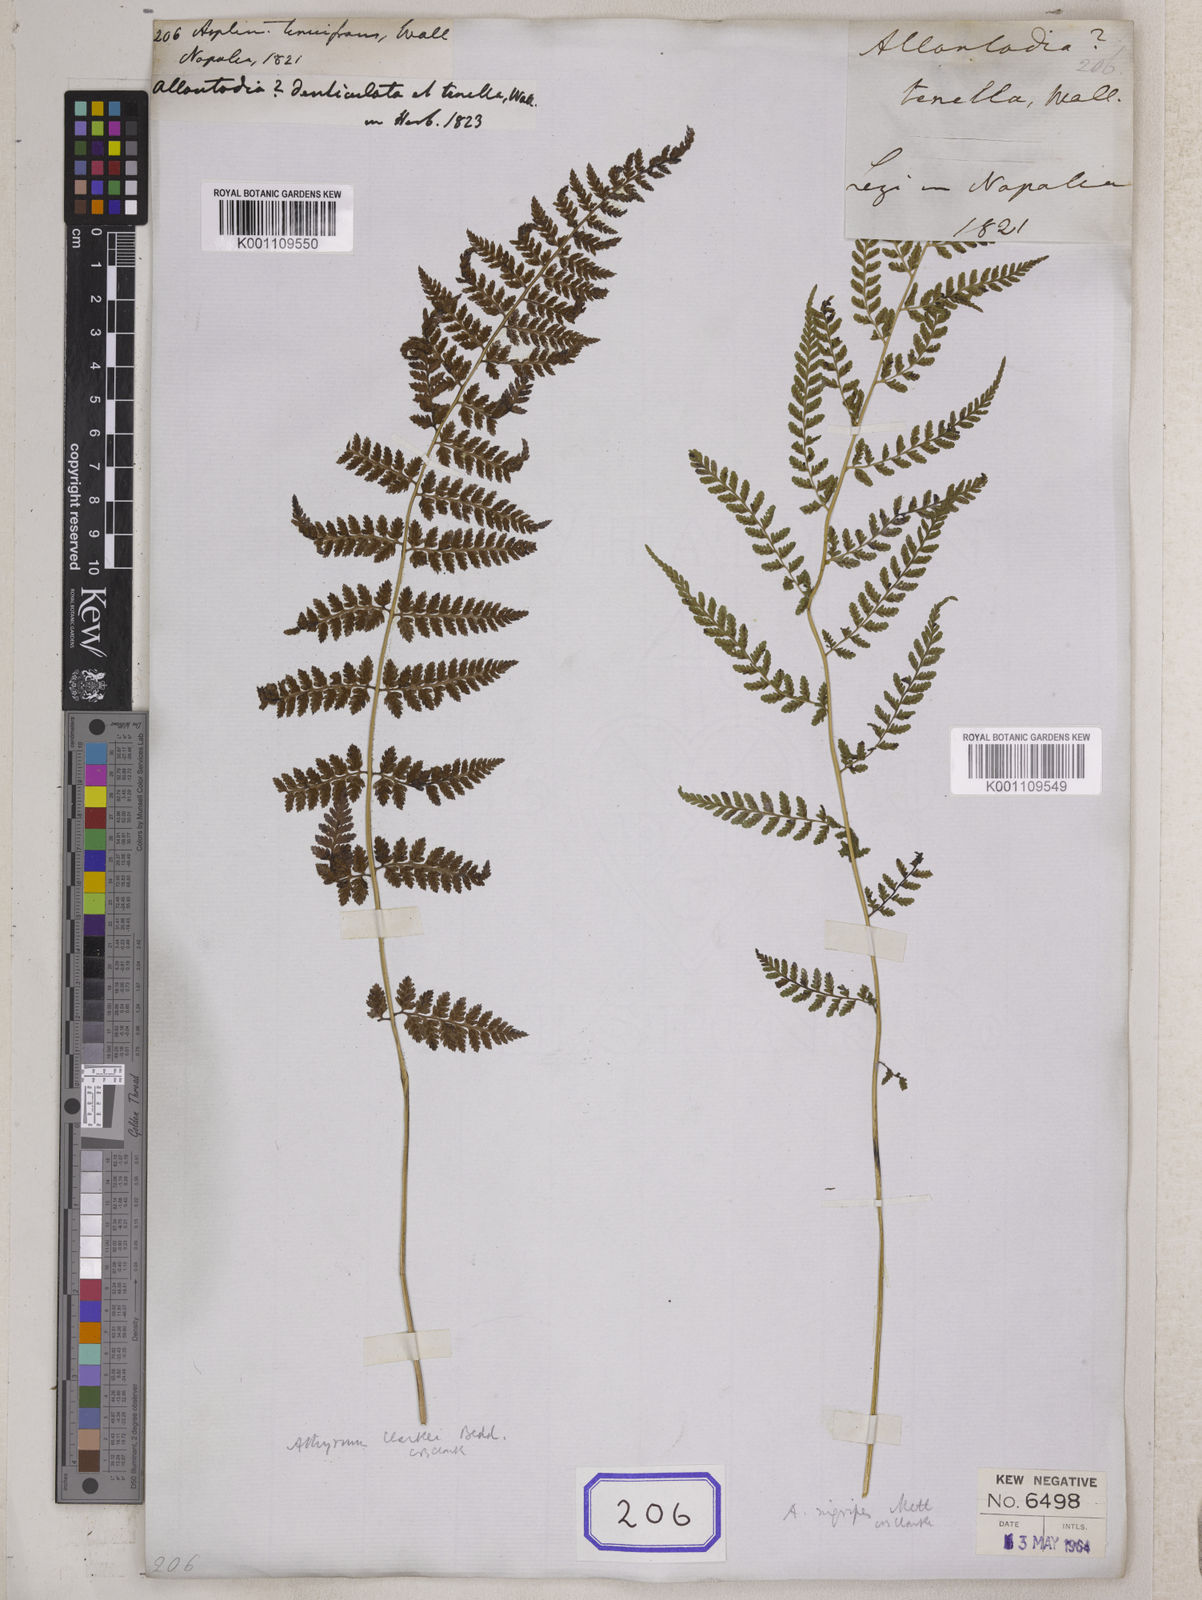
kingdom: Plantae
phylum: Tracheophyta
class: Polypodiopsida
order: Polypodiales
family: Athyriaceae
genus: Athyrium
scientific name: Athyrium strigillosum
